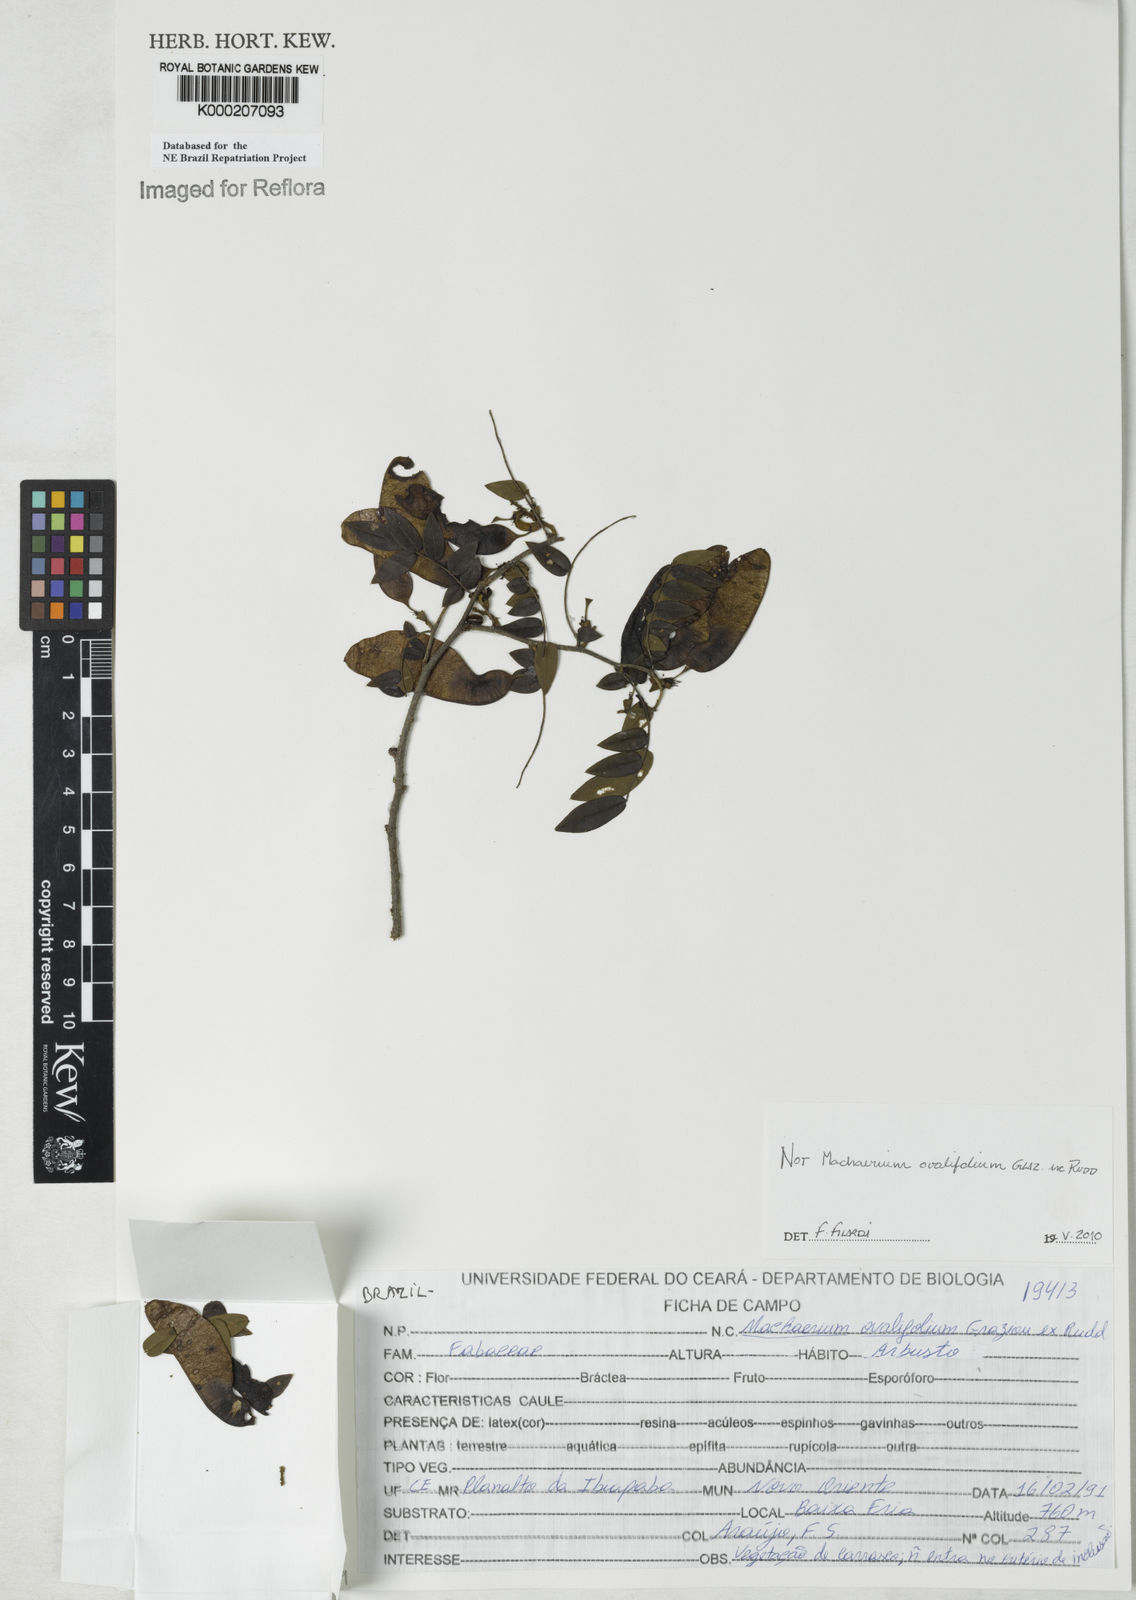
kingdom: Plantae
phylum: Tracheophyta
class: Magnoliopsida
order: Fabales
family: Fabaceae
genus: Machaerium
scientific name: Machaerium ovalifolium
